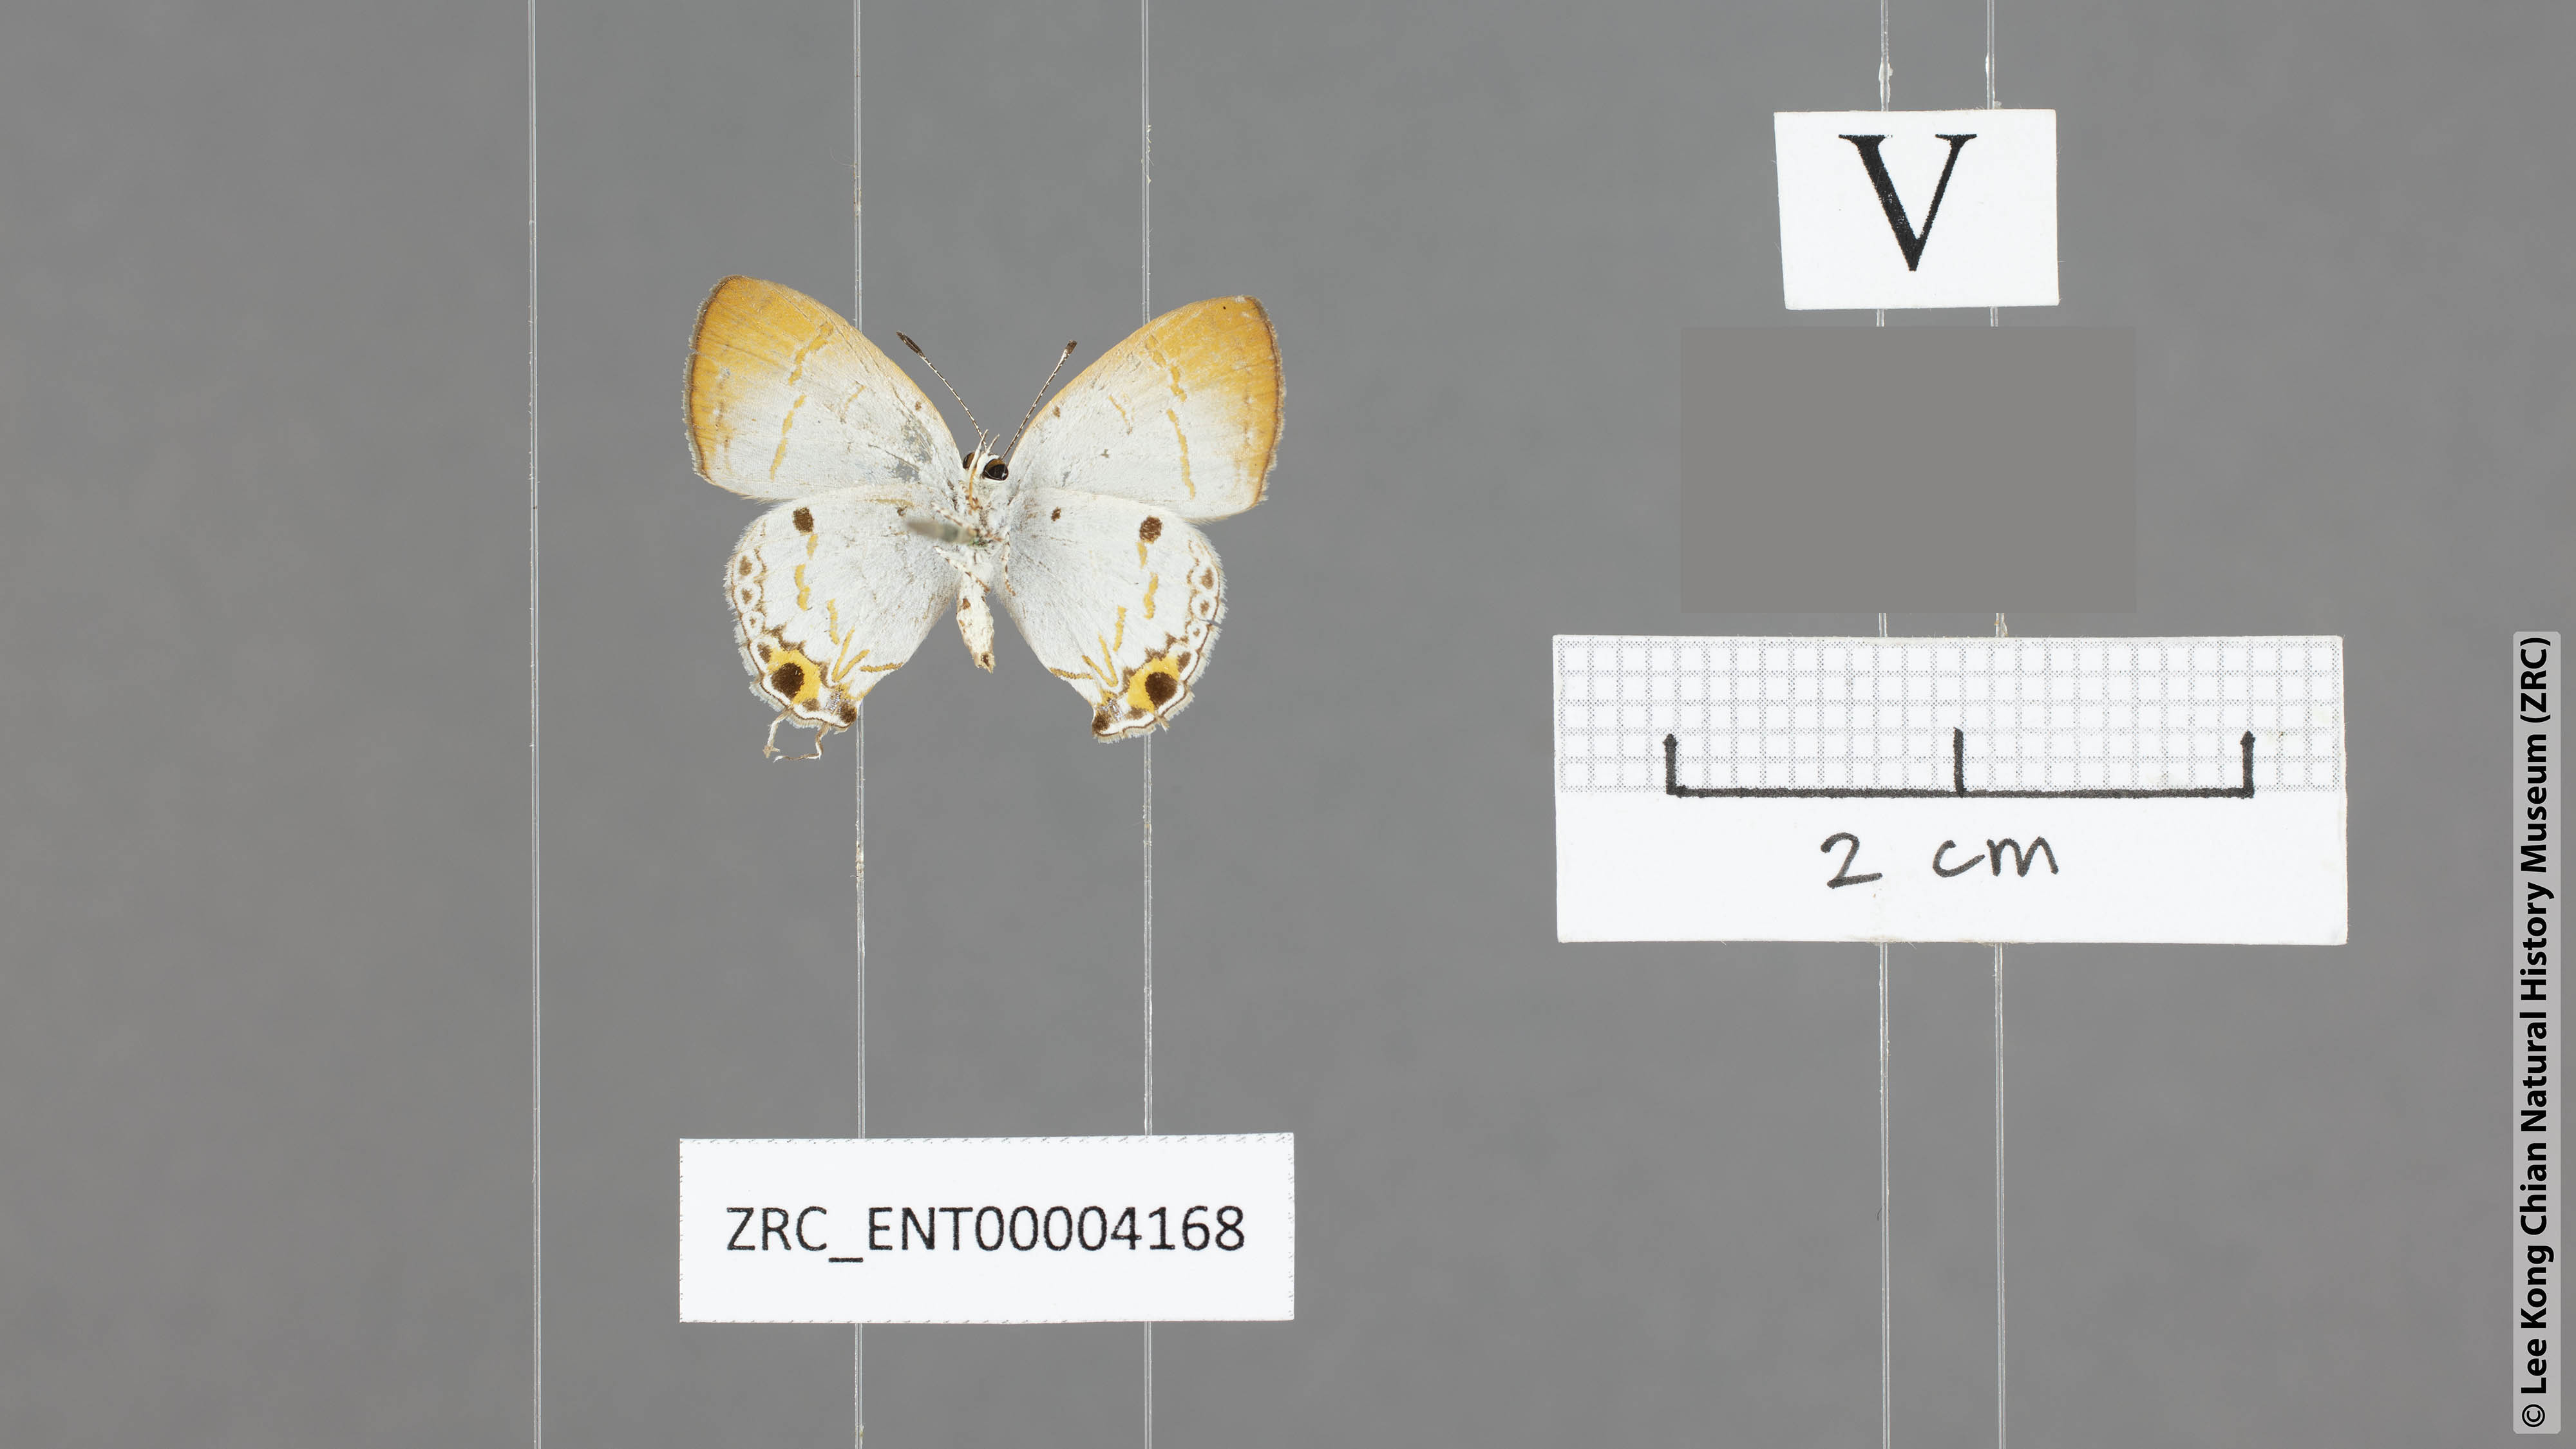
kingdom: Animalia
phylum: Arthropoda
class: Insecta
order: Lepidoptera
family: Lycaenidae
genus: Chliaria
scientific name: Chliaria balua
